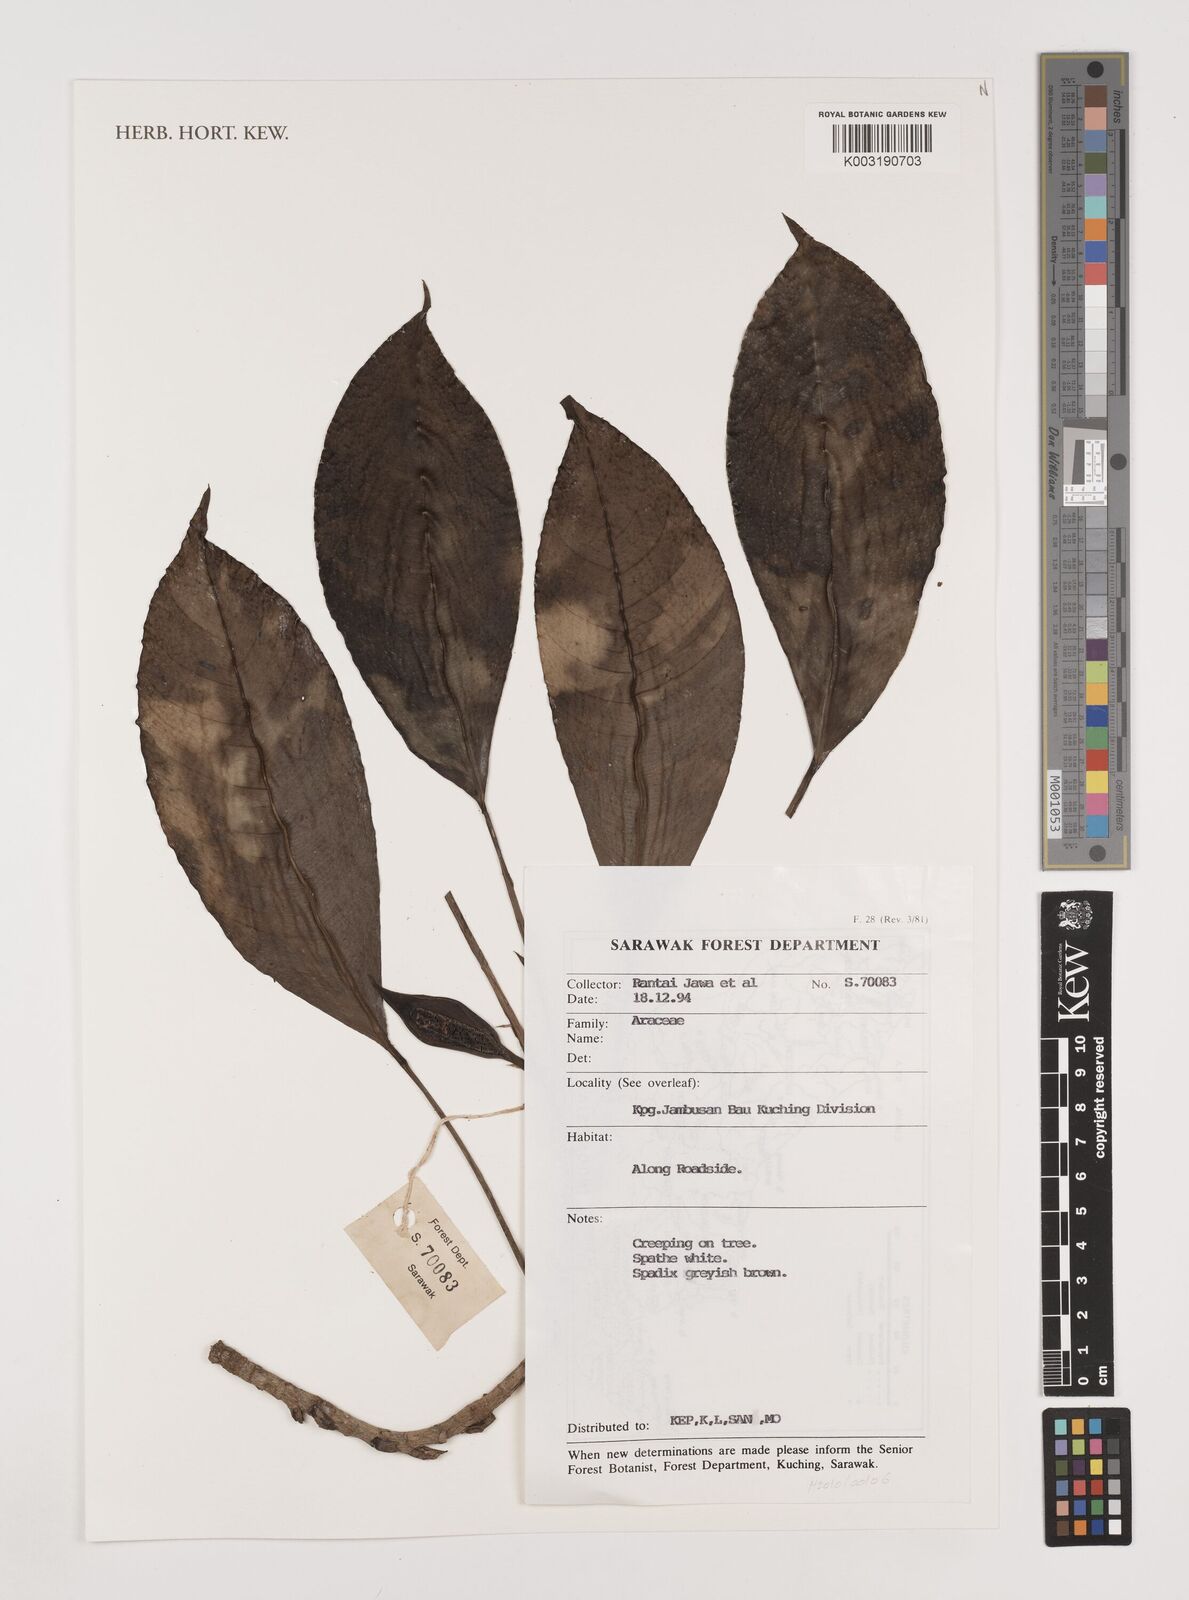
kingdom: Plantae
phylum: Tracheophyta
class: Liliopsida
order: Alismatales
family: Araceae
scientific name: Araceae
